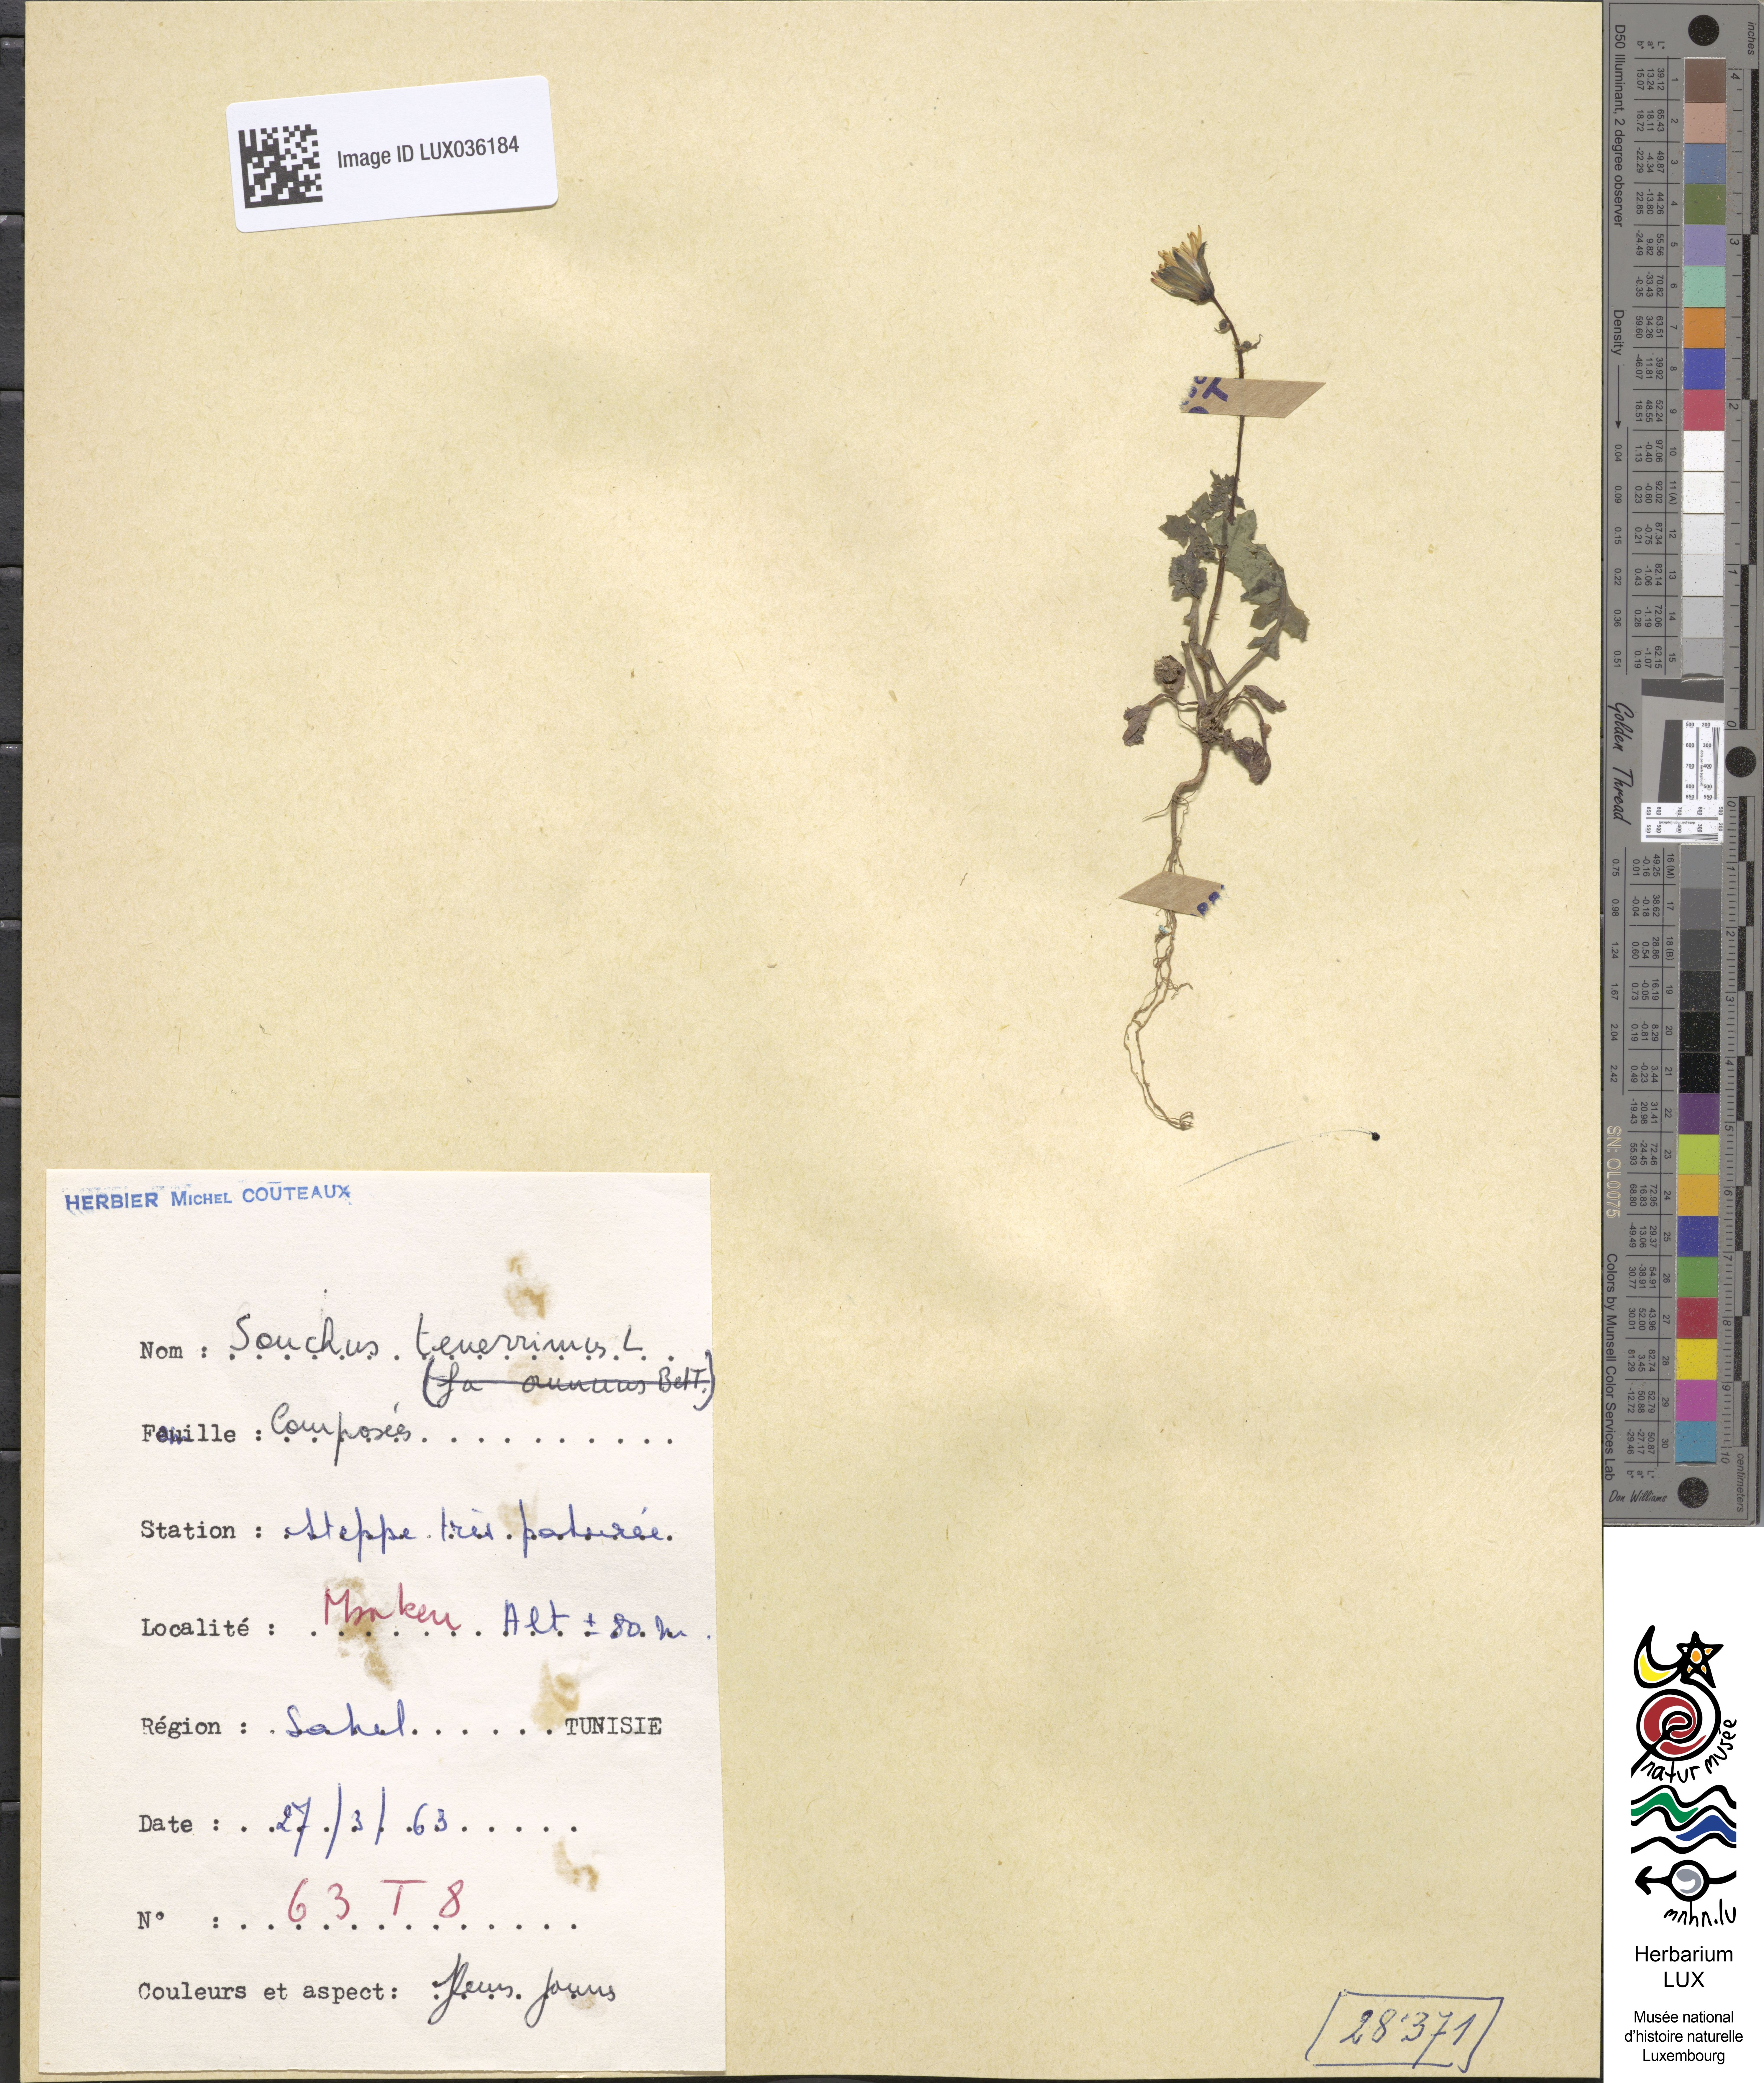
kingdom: Plantae
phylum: Tracheophyta
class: Magnoliopsida
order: Asterales
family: Asteraceae
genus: Sonchus
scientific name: Sonchus tenerrimus
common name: Clammy sowthistle
